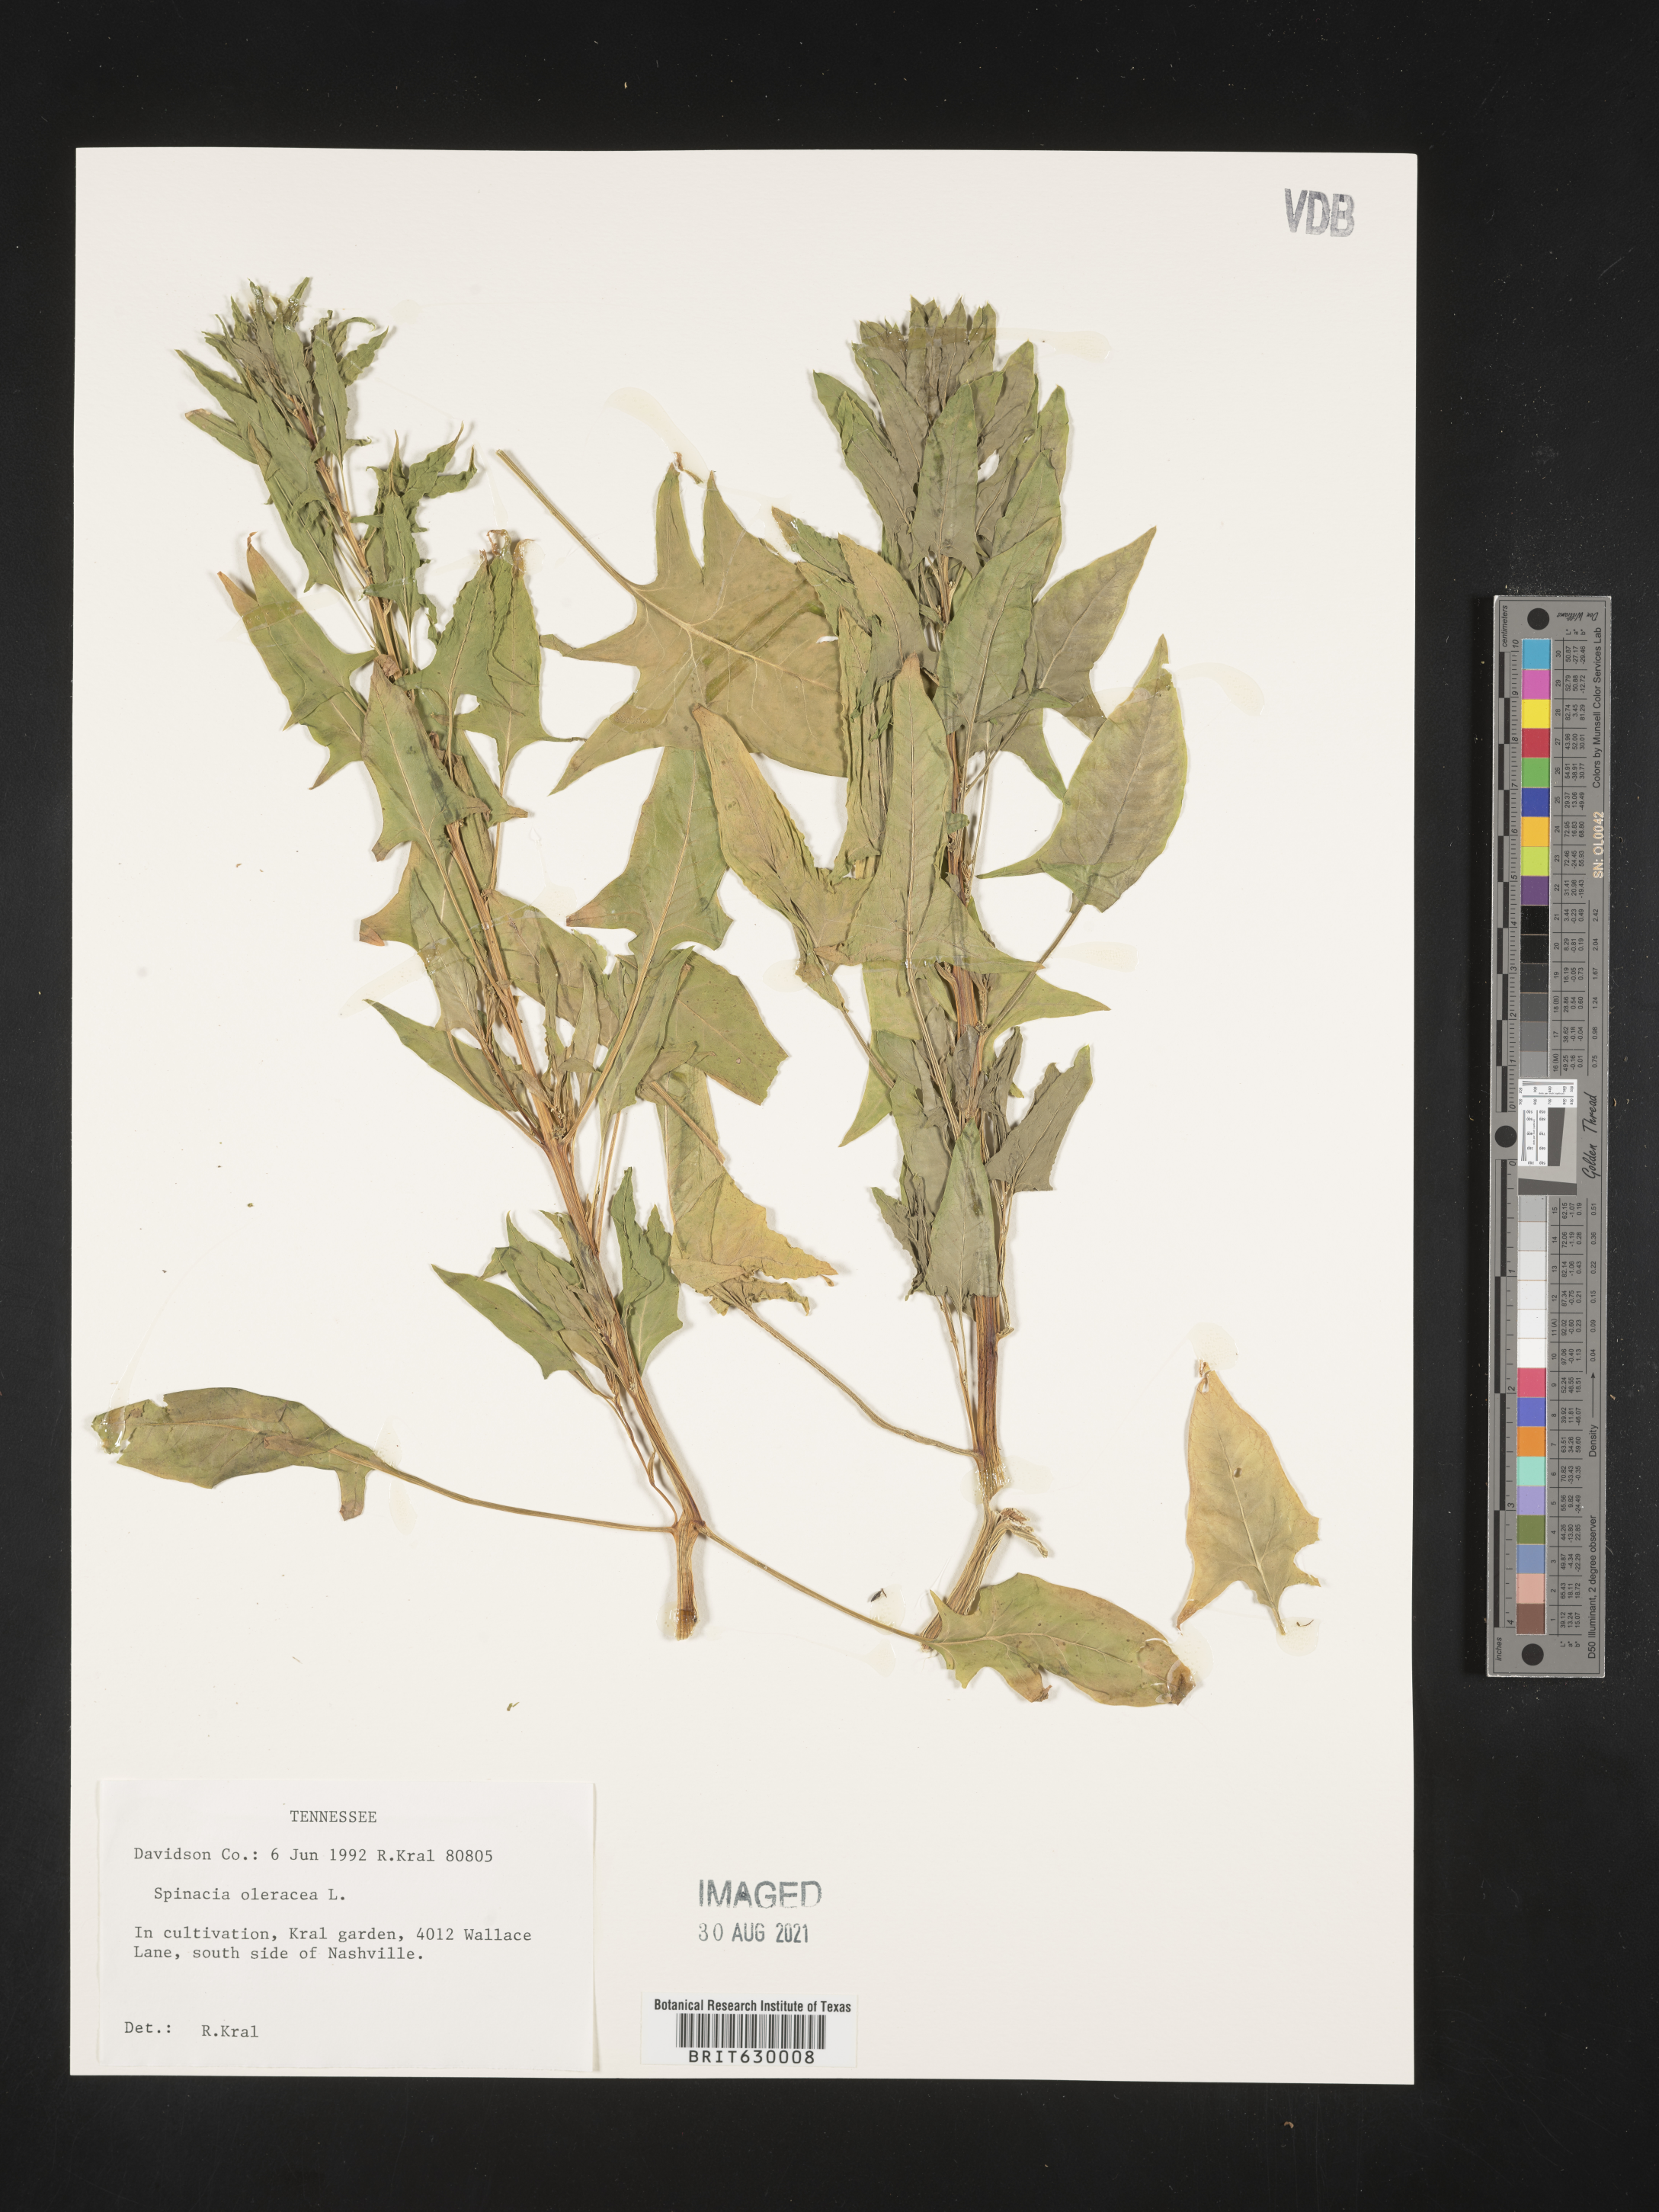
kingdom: Plantae
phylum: Tracheophyta
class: Magnoliopsida
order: Caryophyllales
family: Amaranthaceae
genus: Spinacia
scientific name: Spinacia oleracea
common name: Spinach
